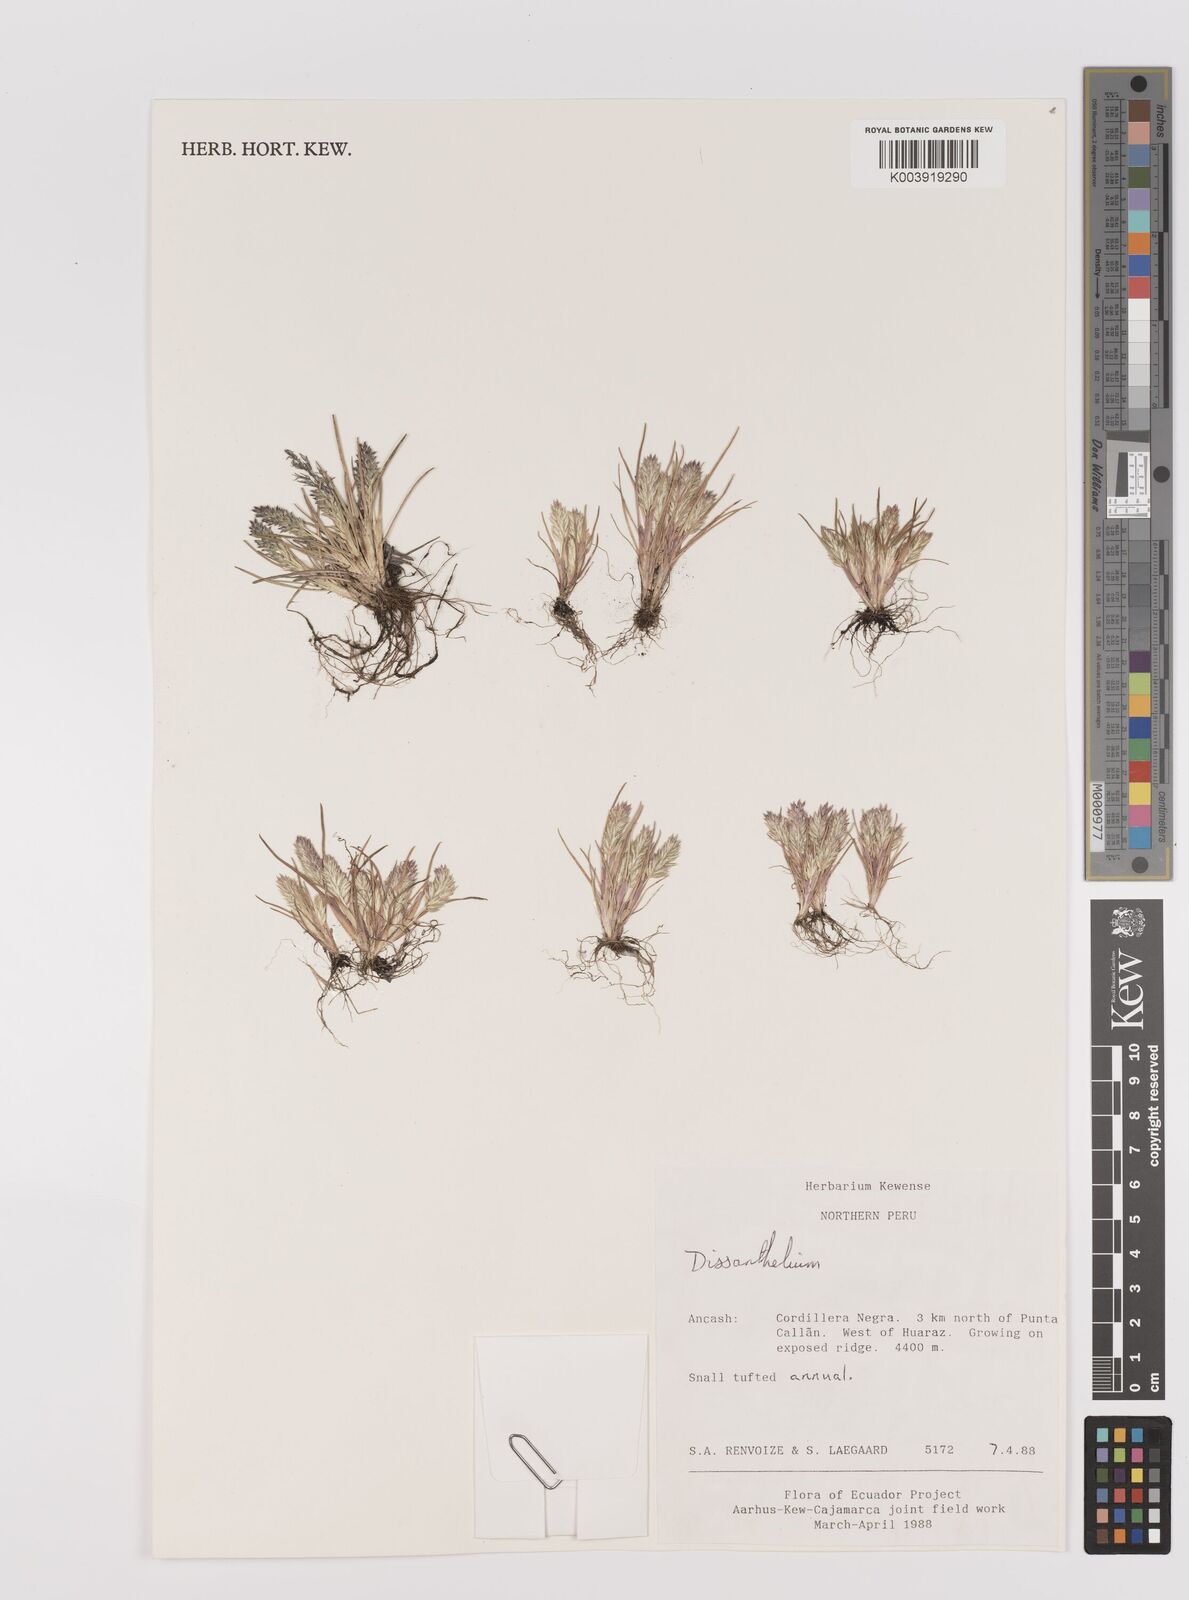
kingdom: Plantae
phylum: Tracheophyta
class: Liliopsida
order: Poales
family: Poaceae
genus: Poa
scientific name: Poa macusaniensis
